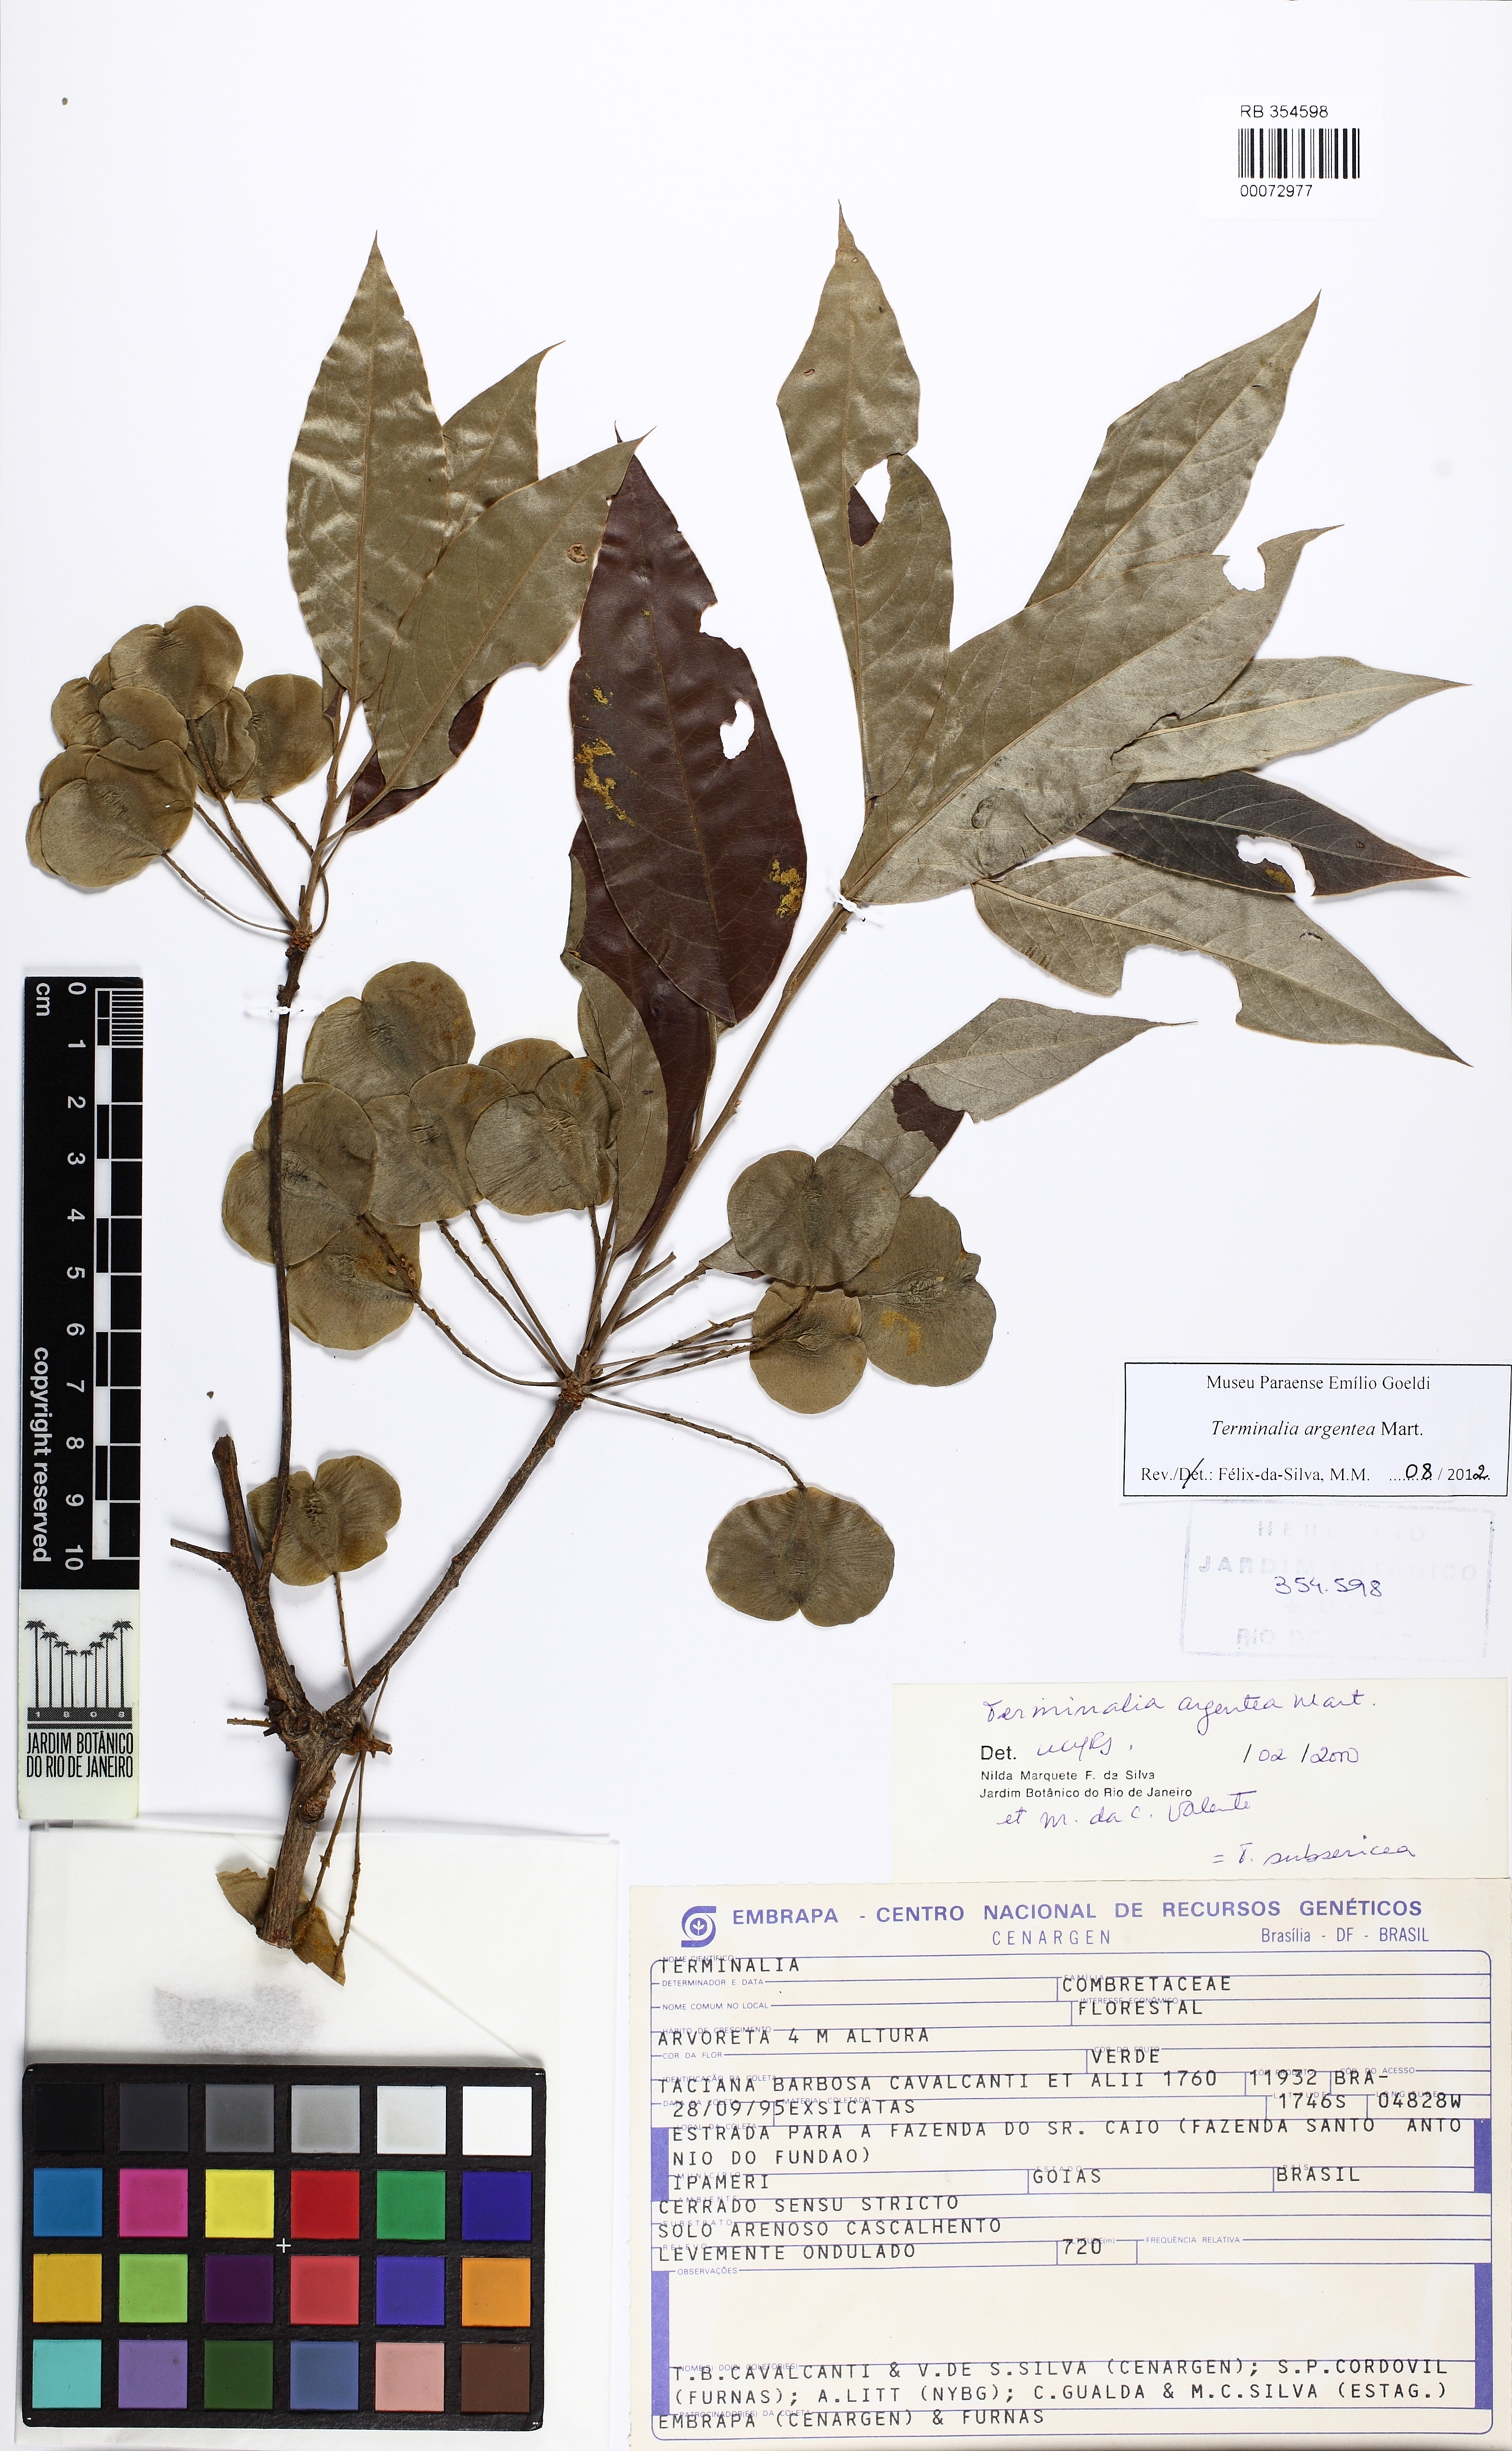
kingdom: Plantae
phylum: Tracheophyta
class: Magnoliopsida
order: Myrtales
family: Combretaceae
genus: Terminalia
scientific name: Terminalia argentea
